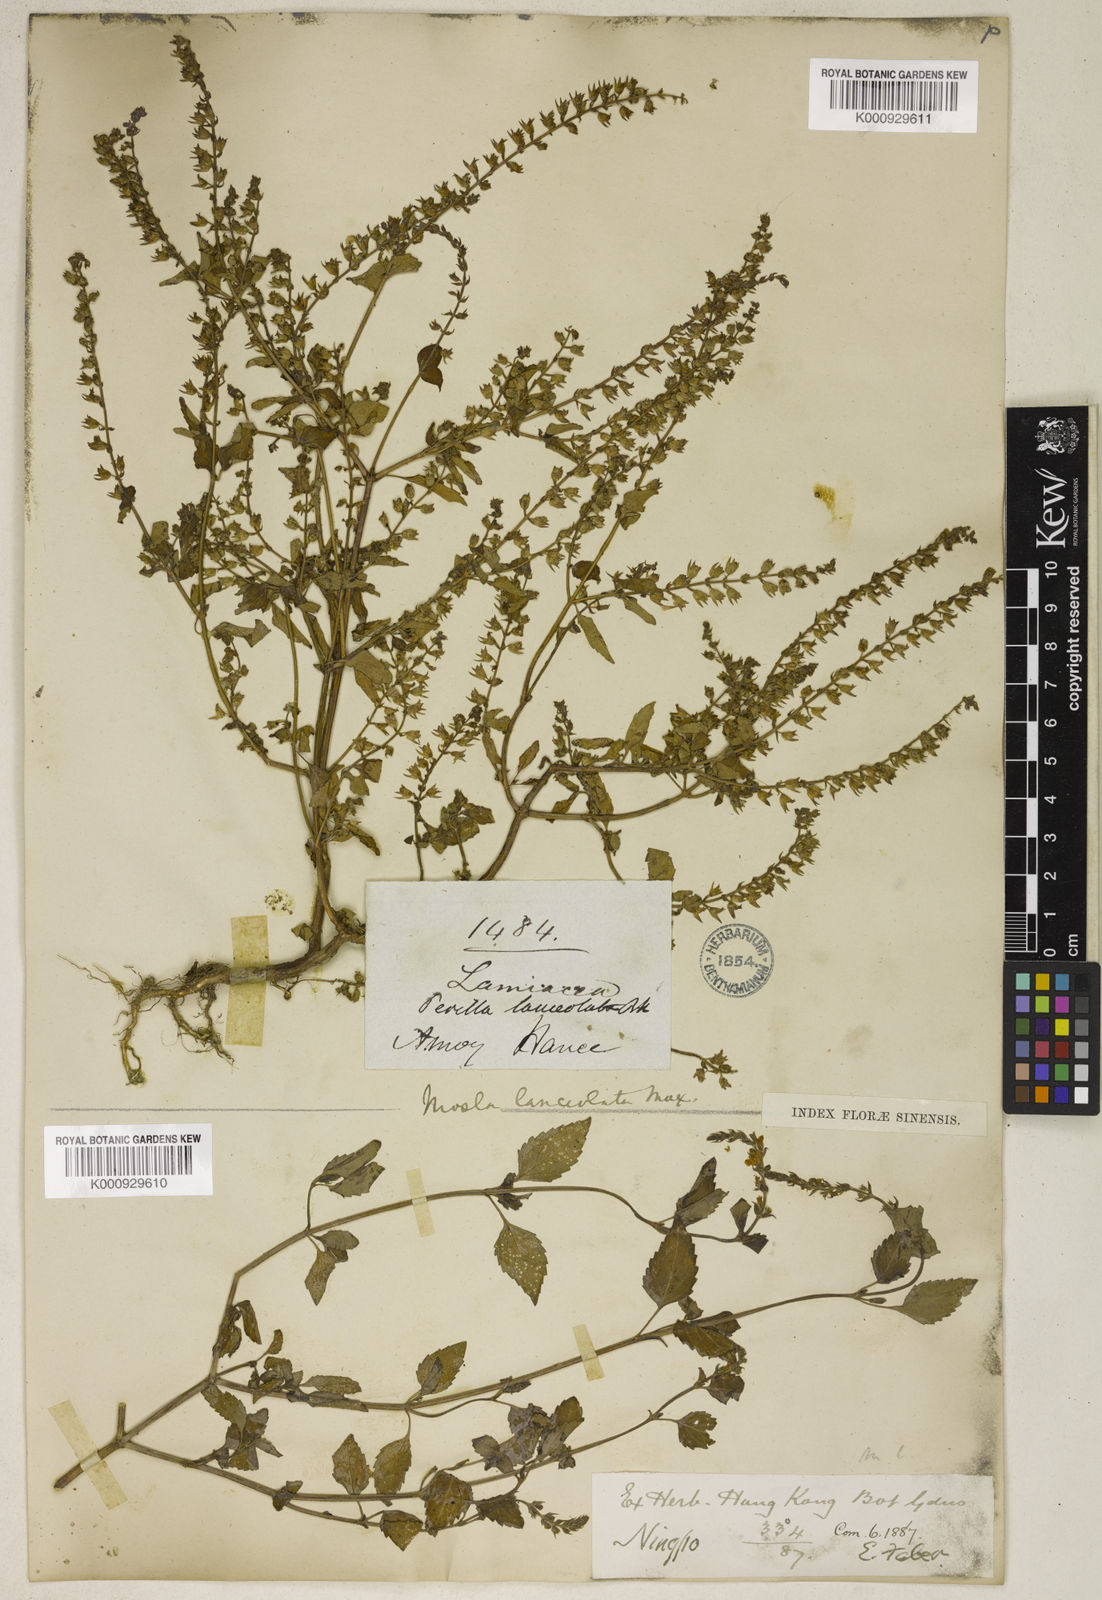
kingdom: Plantae
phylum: Tracheophyta
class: Magnoliopsida
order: Lamiales
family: Lamiaceae
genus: Mosla
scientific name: Mosla scabra
